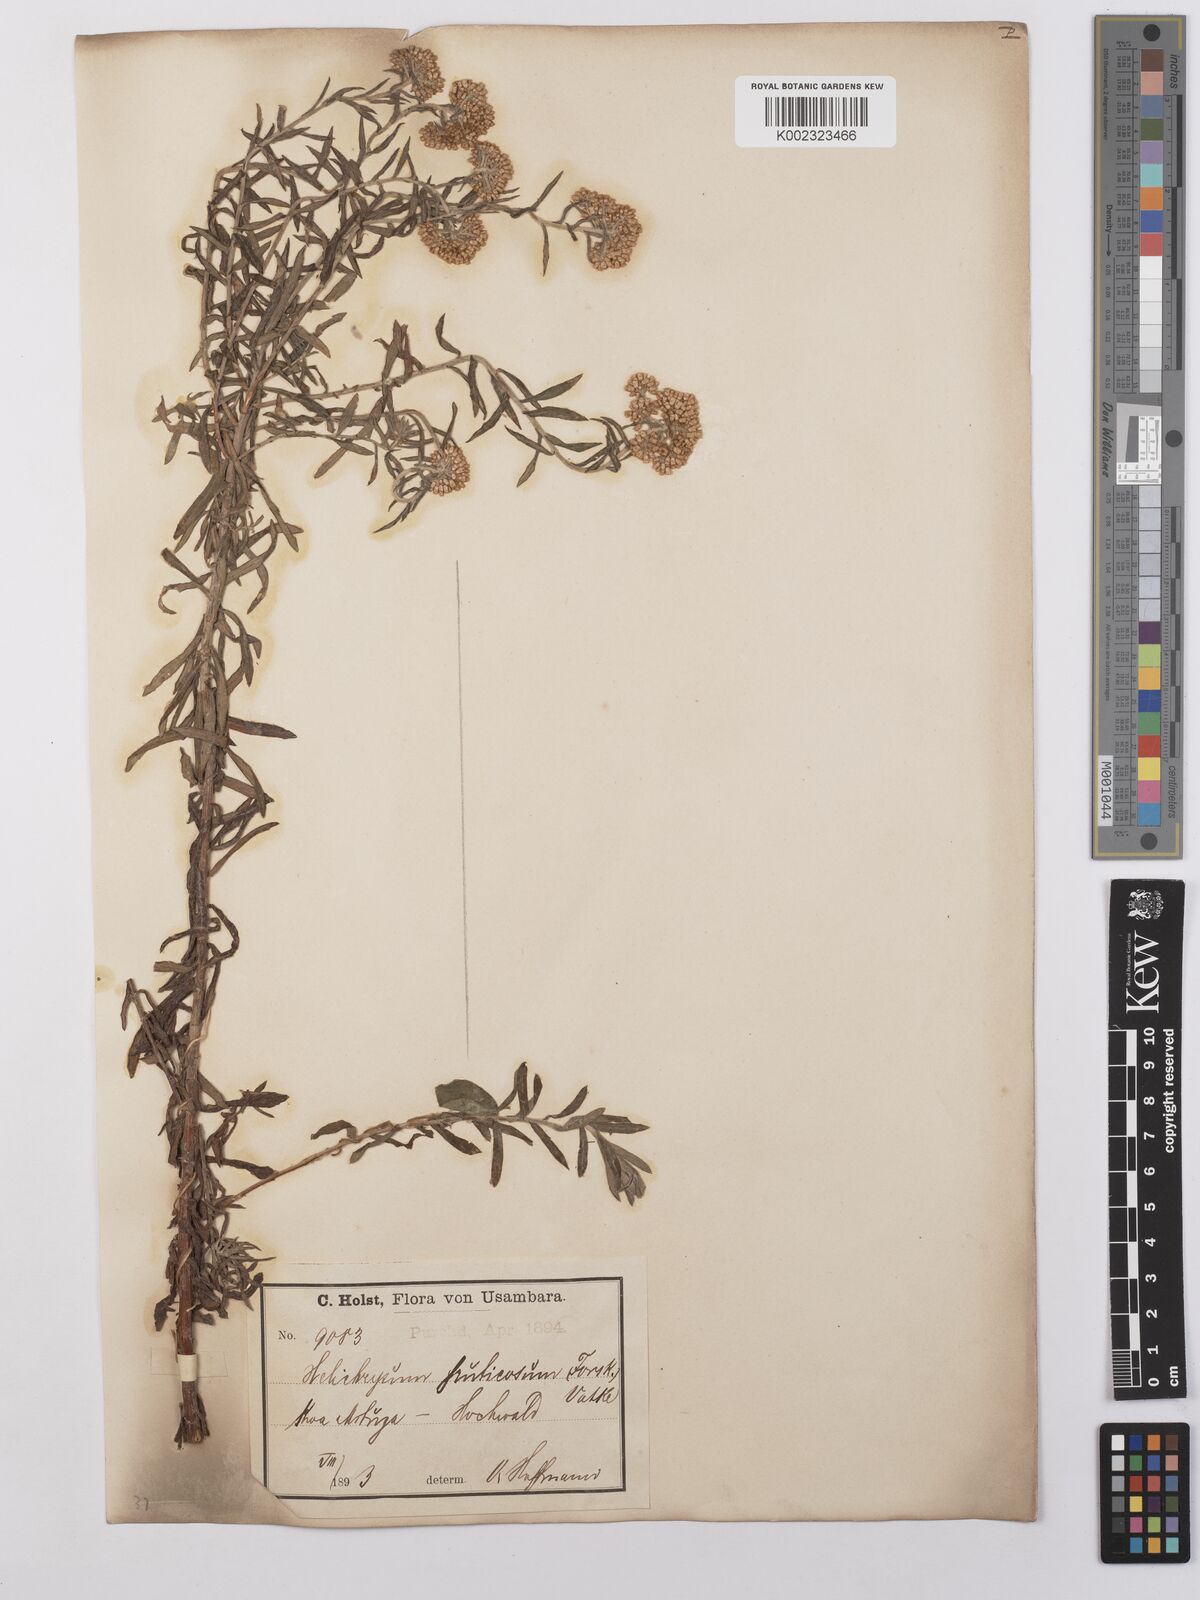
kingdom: Plantae
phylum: Tracheophyta
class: Magnoliopsida
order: Asterales
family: Asteraceae
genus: Helichrysum
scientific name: Helichrysum forskahlii
